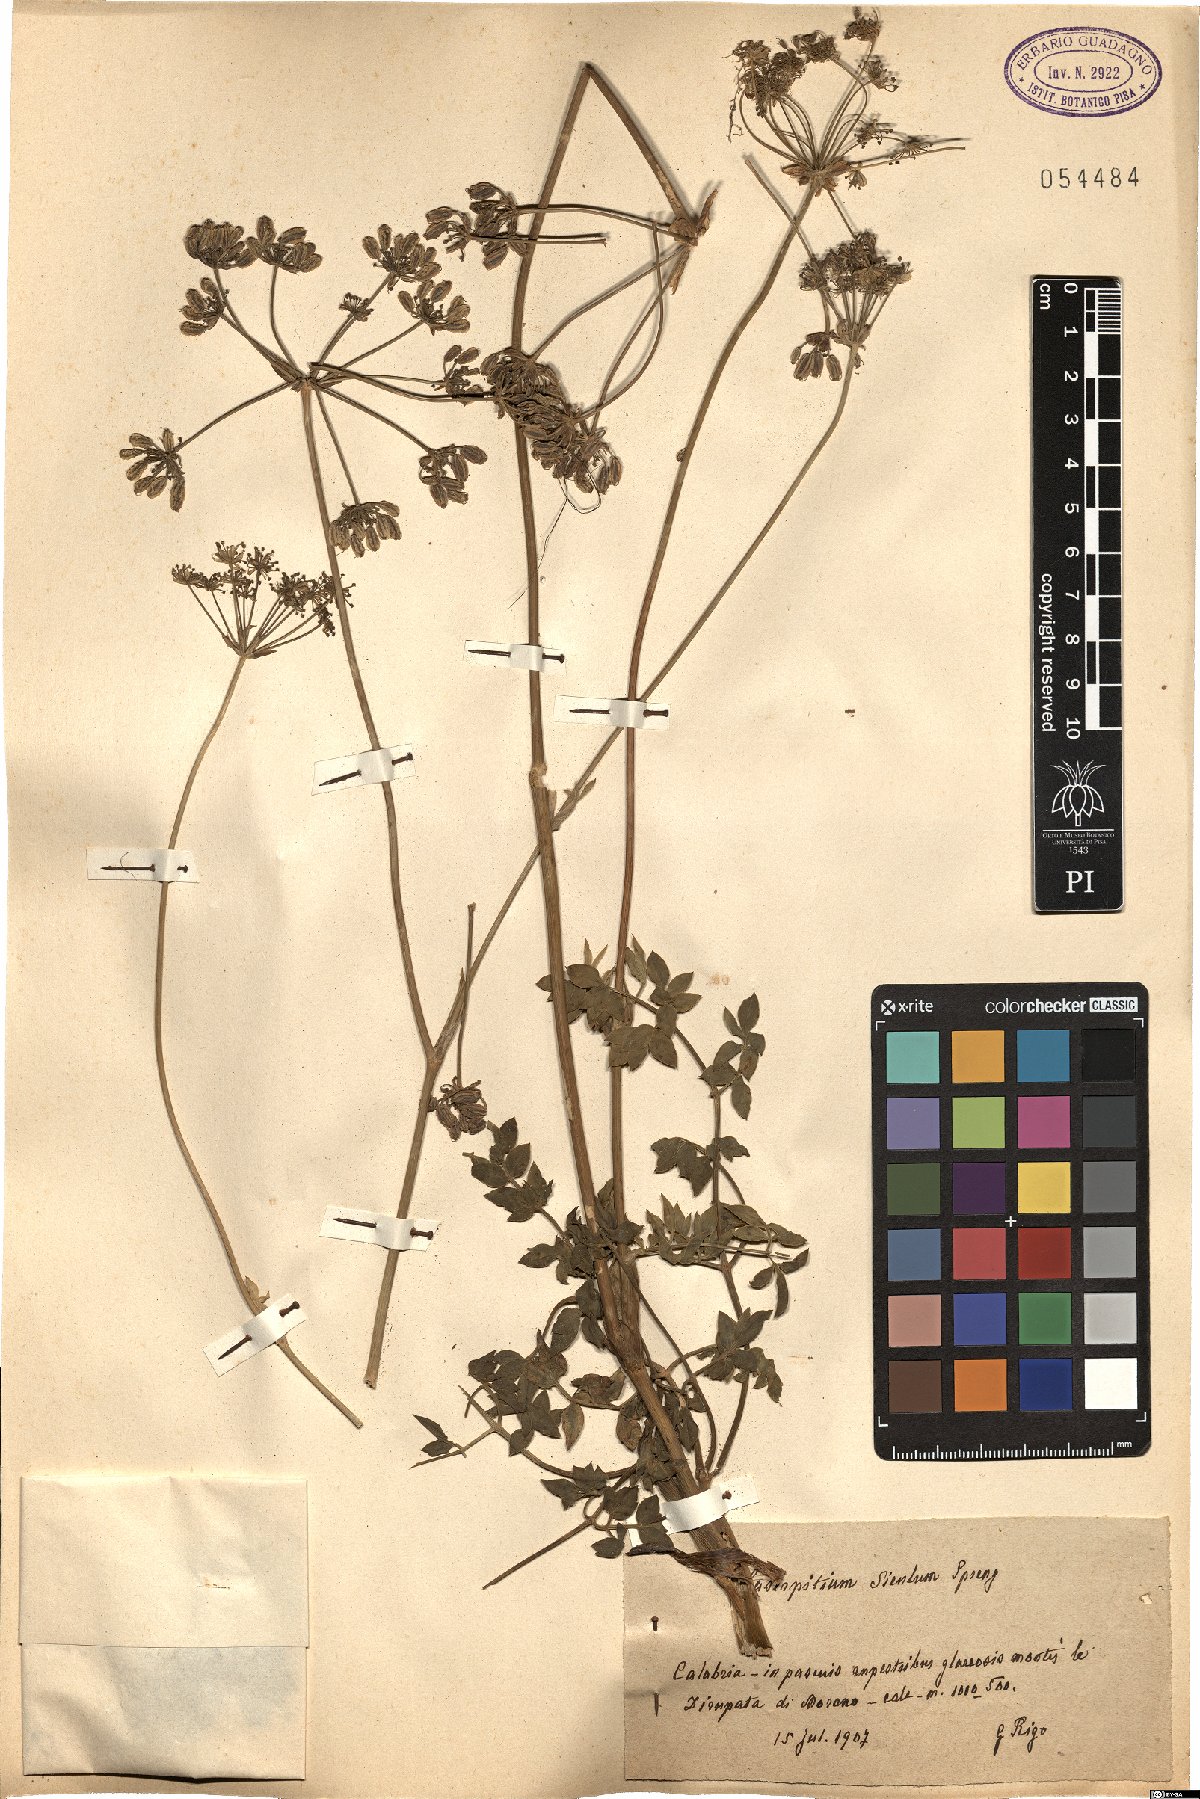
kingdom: Plantae
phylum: Tracheophyta
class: Magnoliopsida
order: Apiales
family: Apiaceae
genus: Siler
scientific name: Siler montanum
